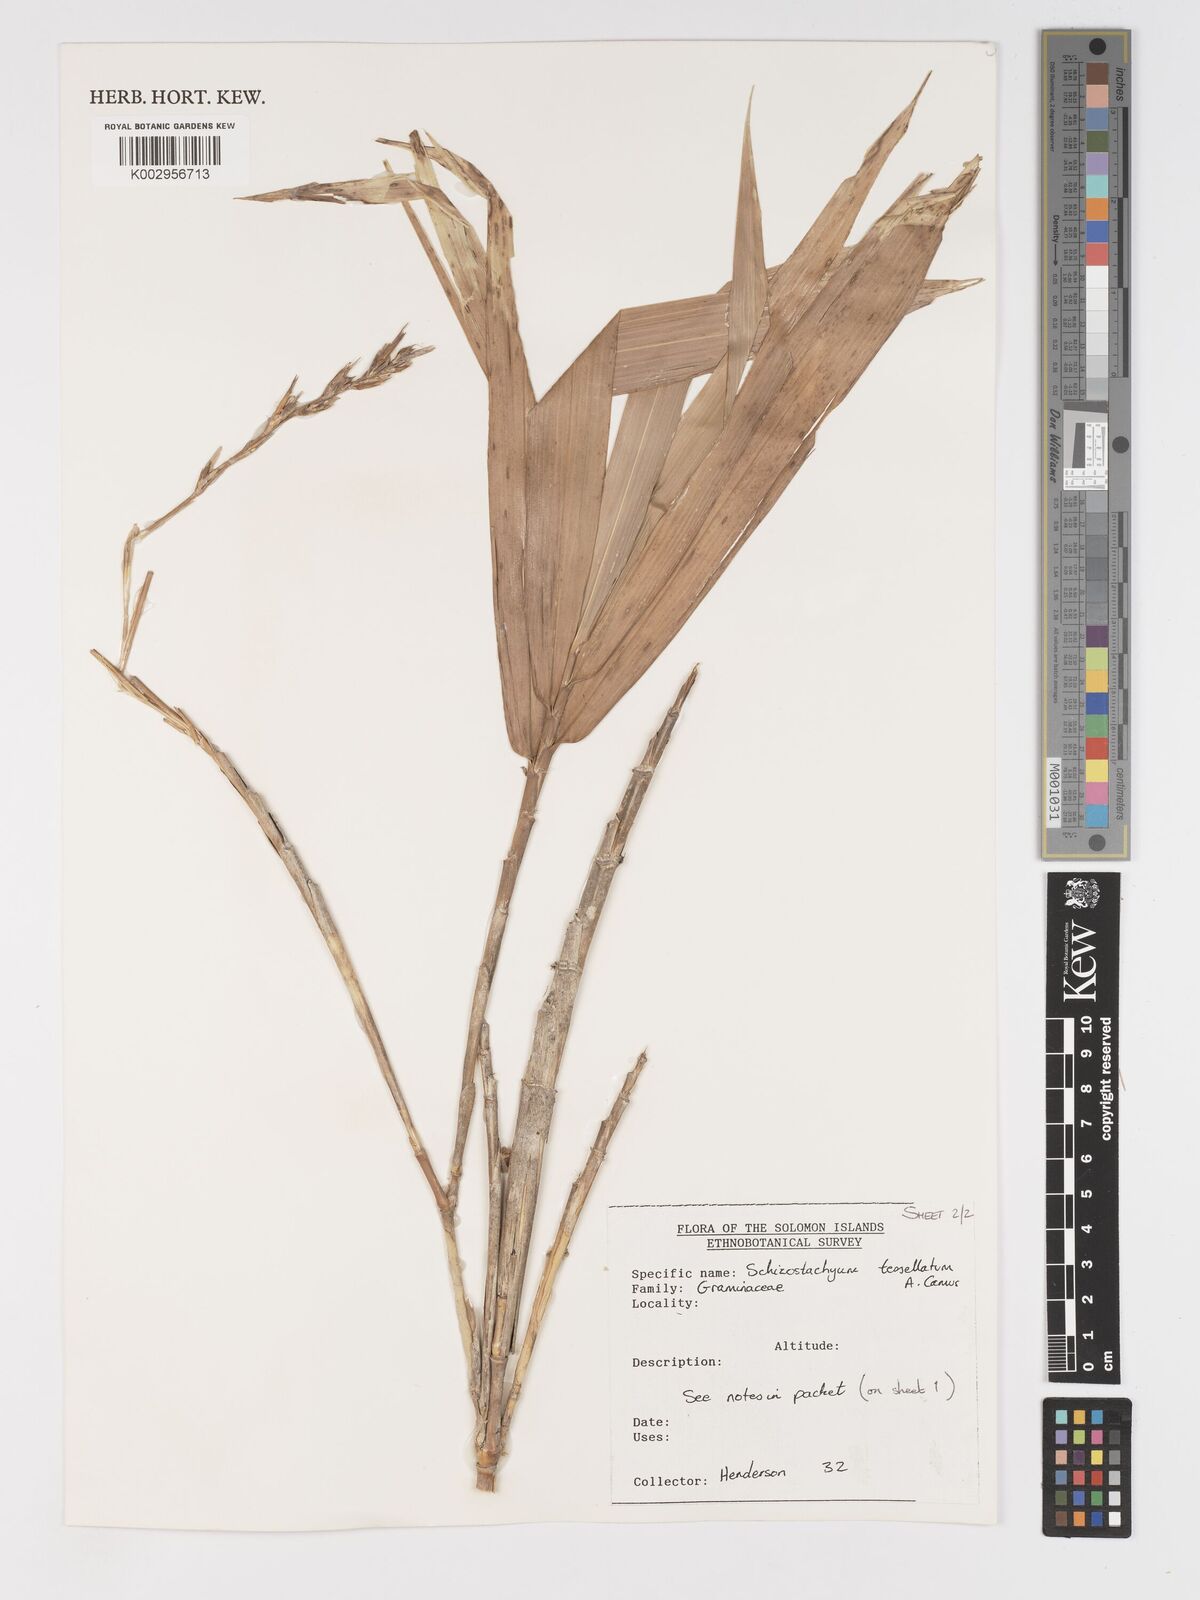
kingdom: Plantae
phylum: Tracheophyta
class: Liliopsida
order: Poales
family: Poaceae
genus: Schizostachyum
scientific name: Schizostachyum tessellatum
